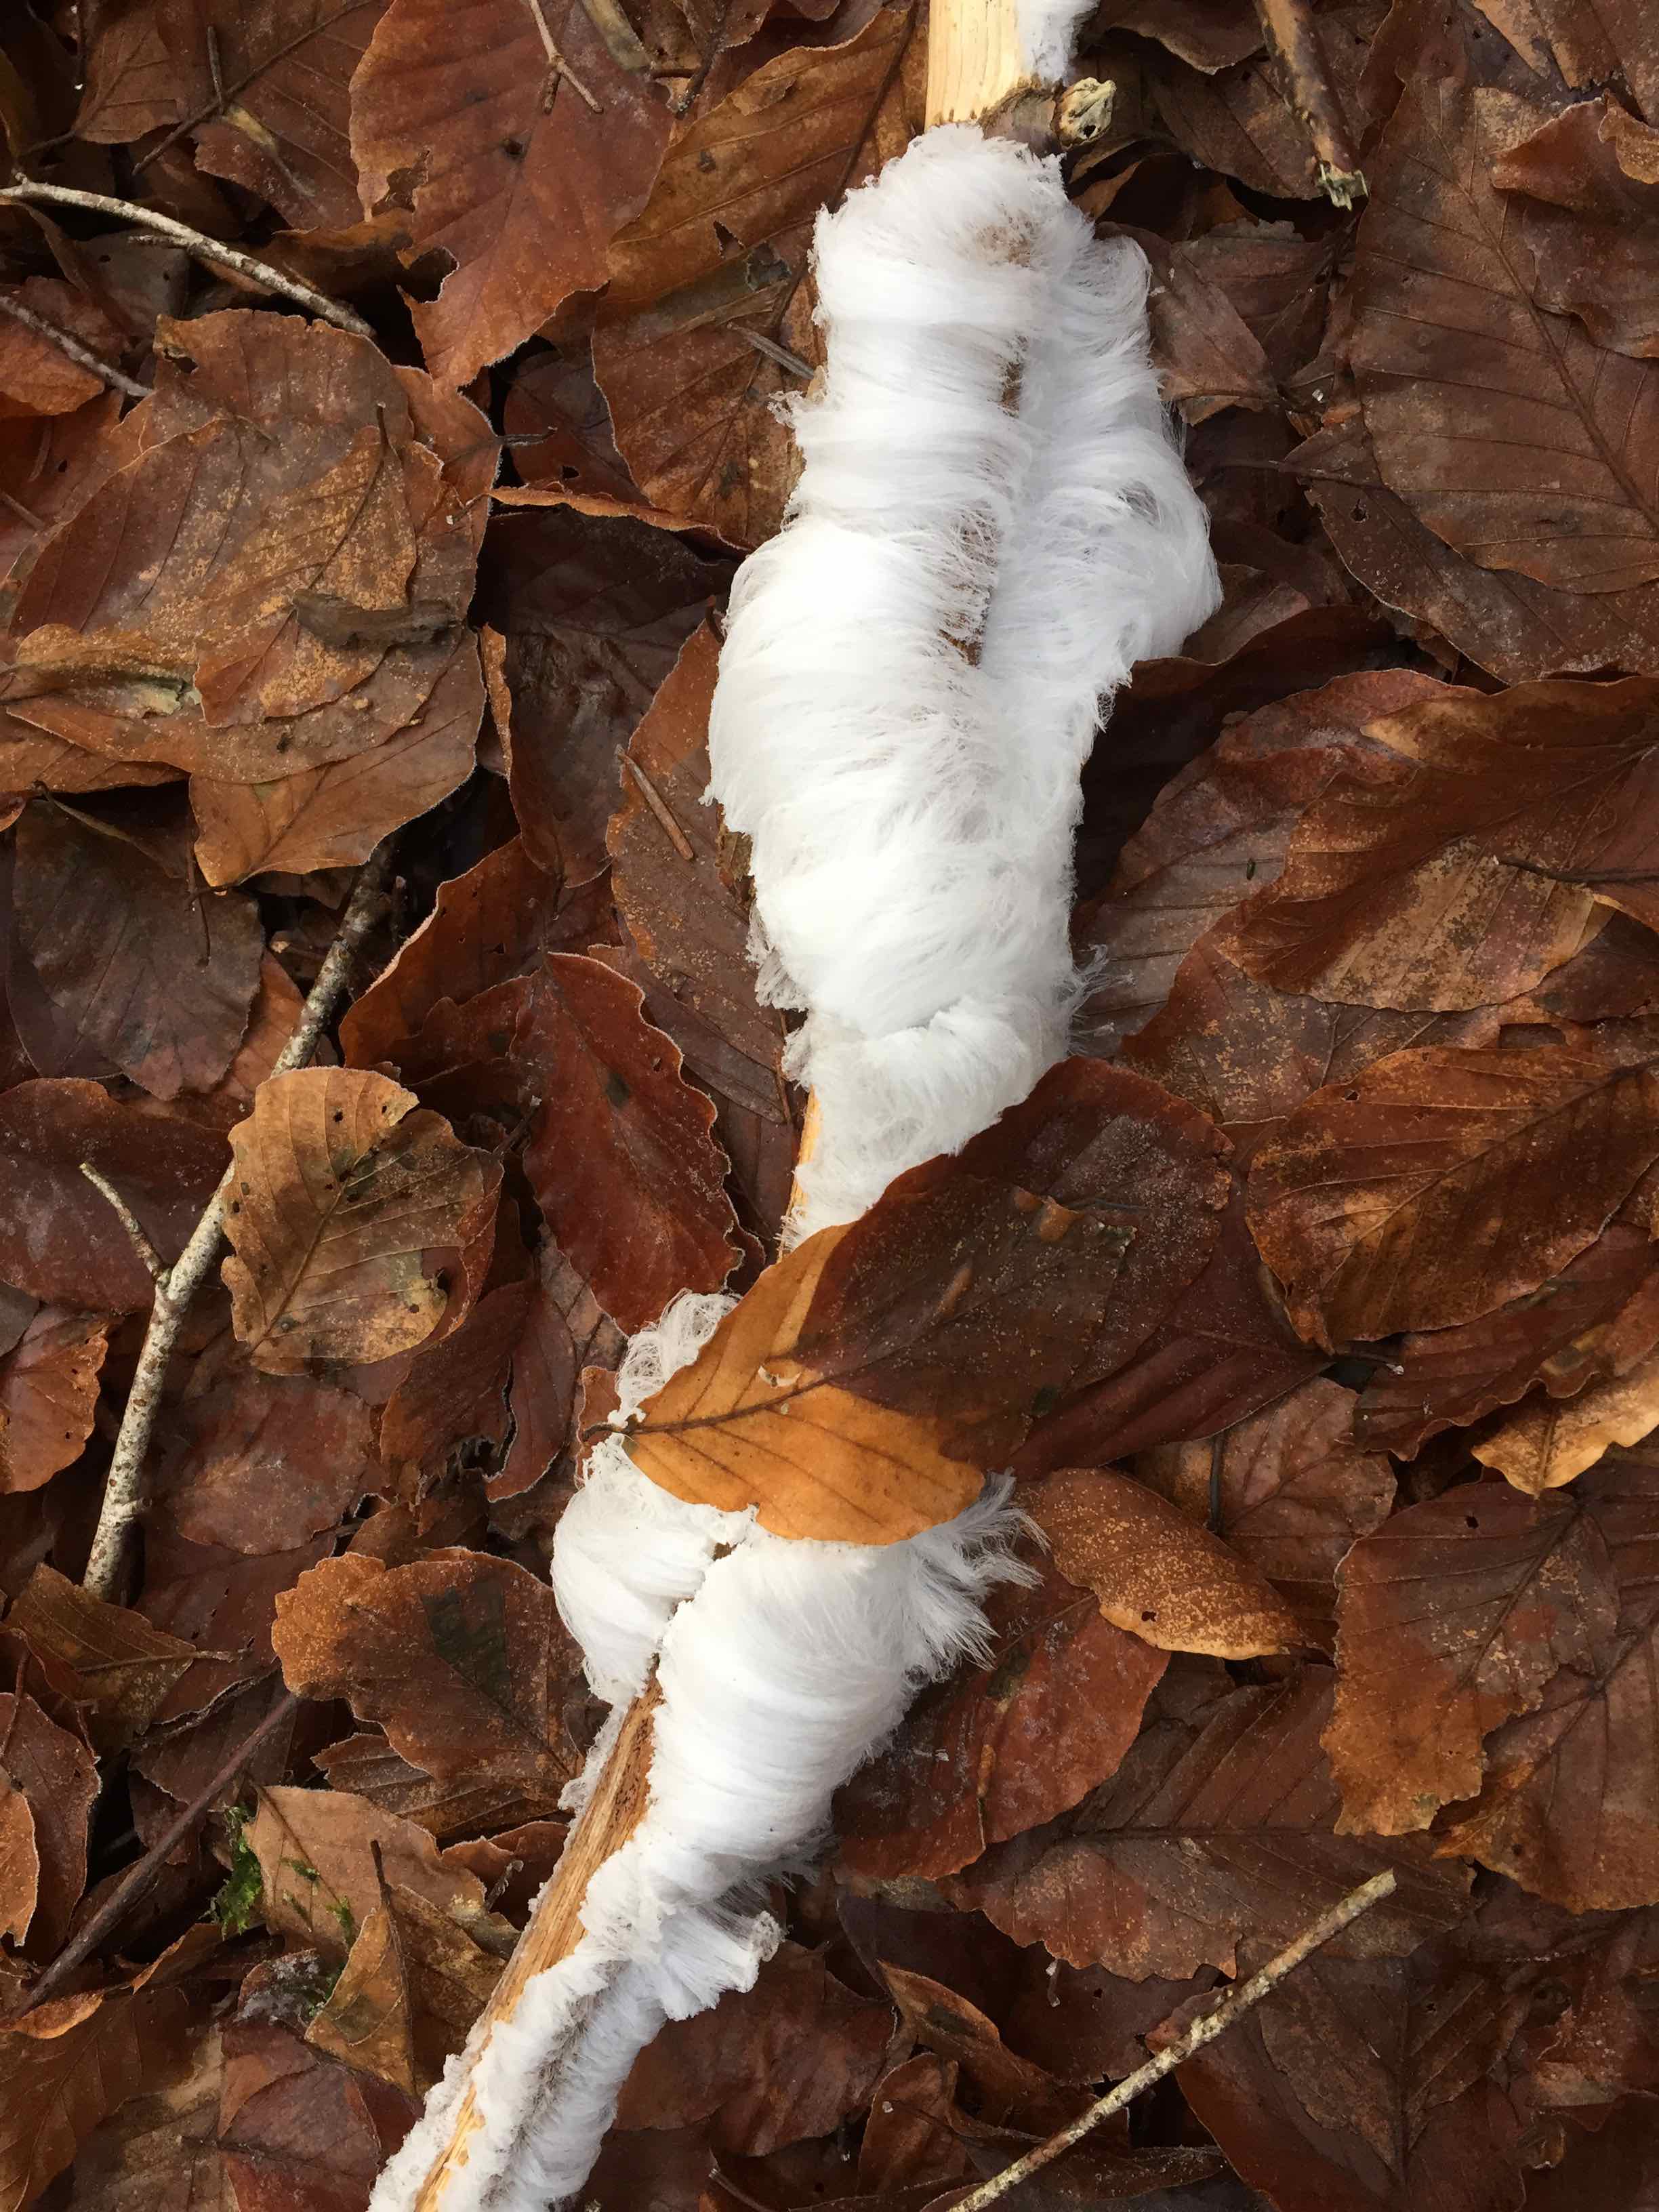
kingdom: Fungi
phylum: Basidiomycota
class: Tremellomycetes
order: Tremellales
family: Exidiaceae
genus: Exidiopsis
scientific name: Exidiopsis effusa
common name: smuk bævrehinde
